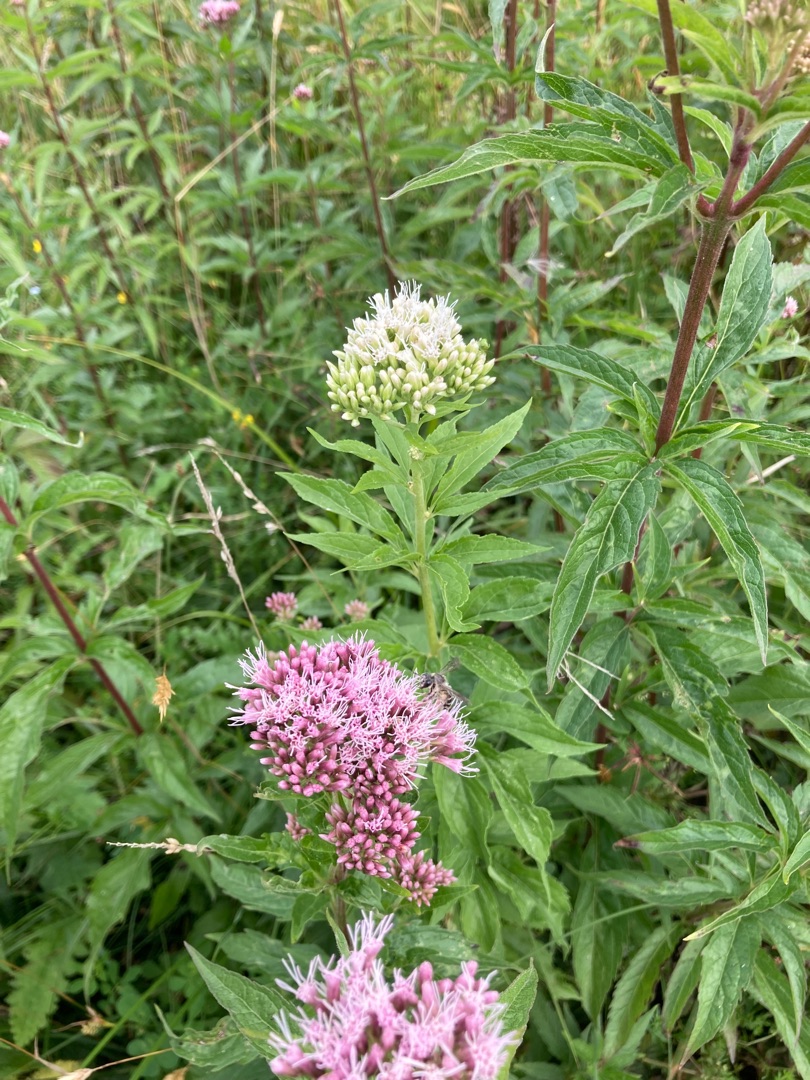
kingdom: Plantae
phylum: Tracheophyta
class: Magnoliopsida
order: Asterales
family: Asteraceae
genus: Eupatorium
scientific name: Eupatorium cannabinum
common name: Hjortetrøst
